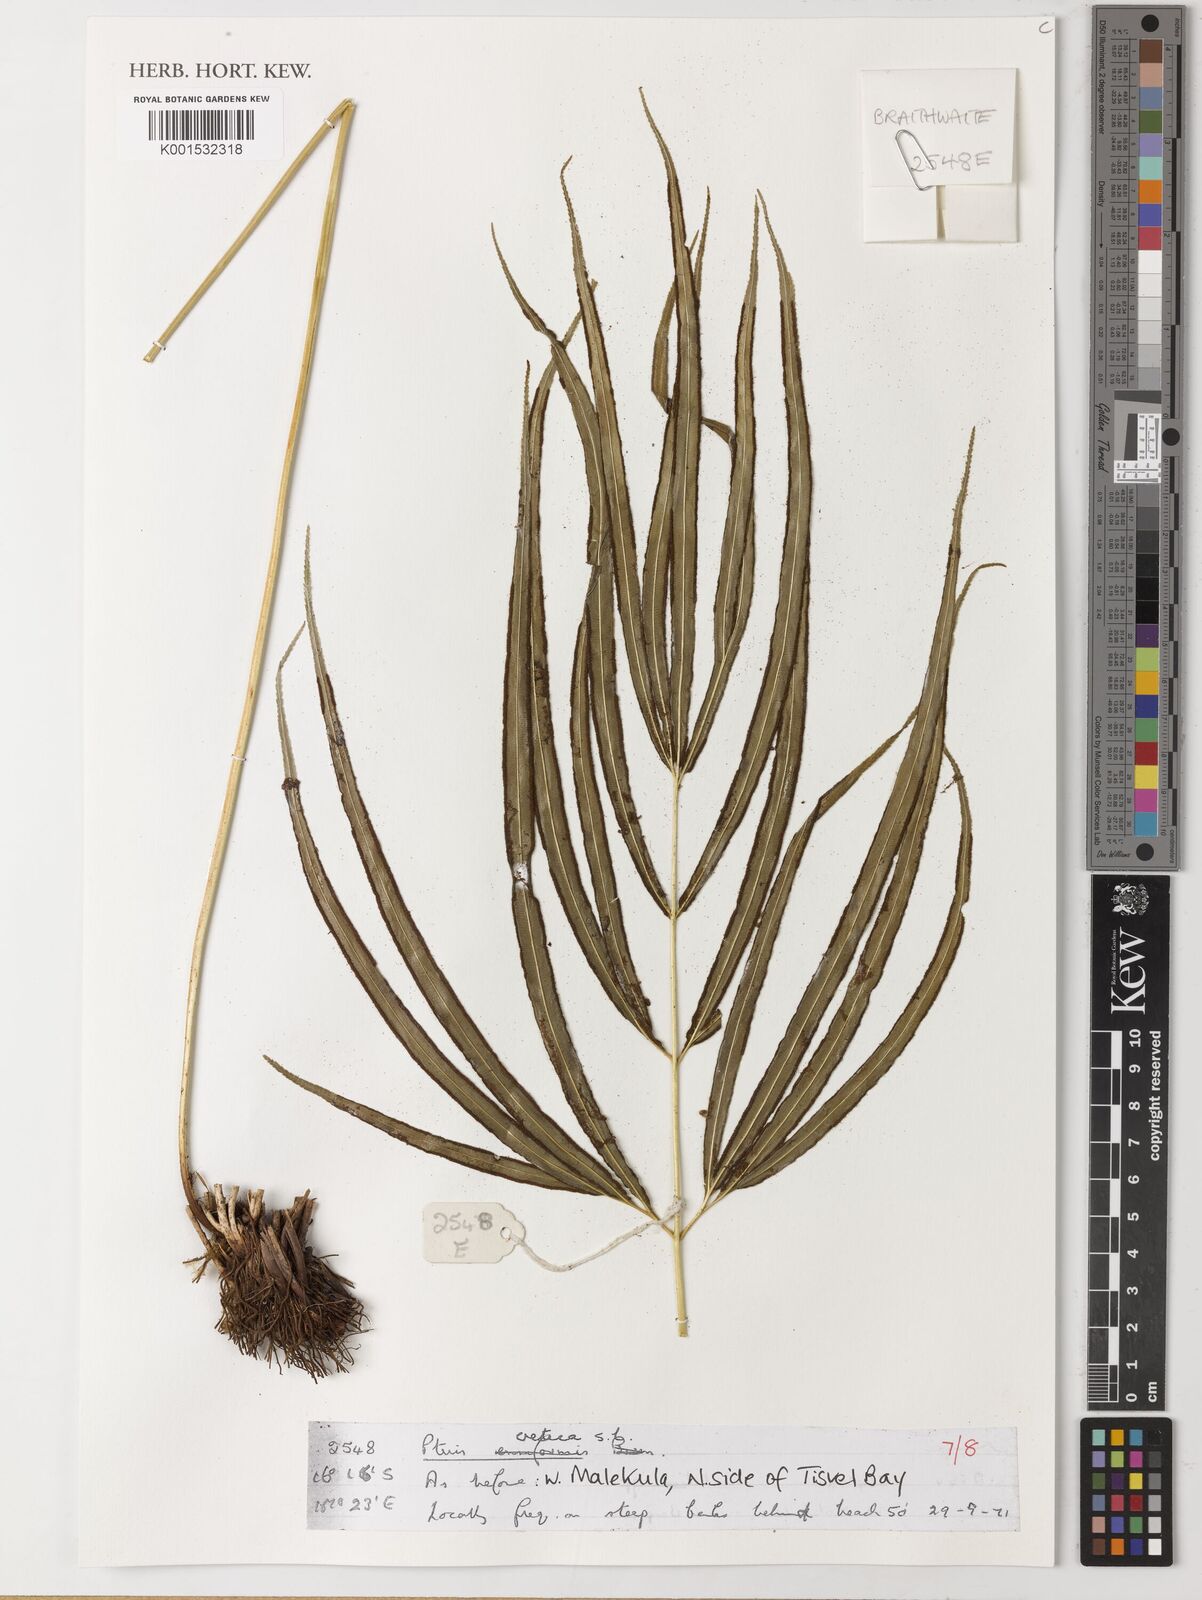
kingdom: Plantae
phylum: Tracheophyta
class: Polypodiopsida
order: Polypodiales
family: Pteridaceae
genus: Pteris
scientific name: Pteris cretica
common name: Ribbon fern
